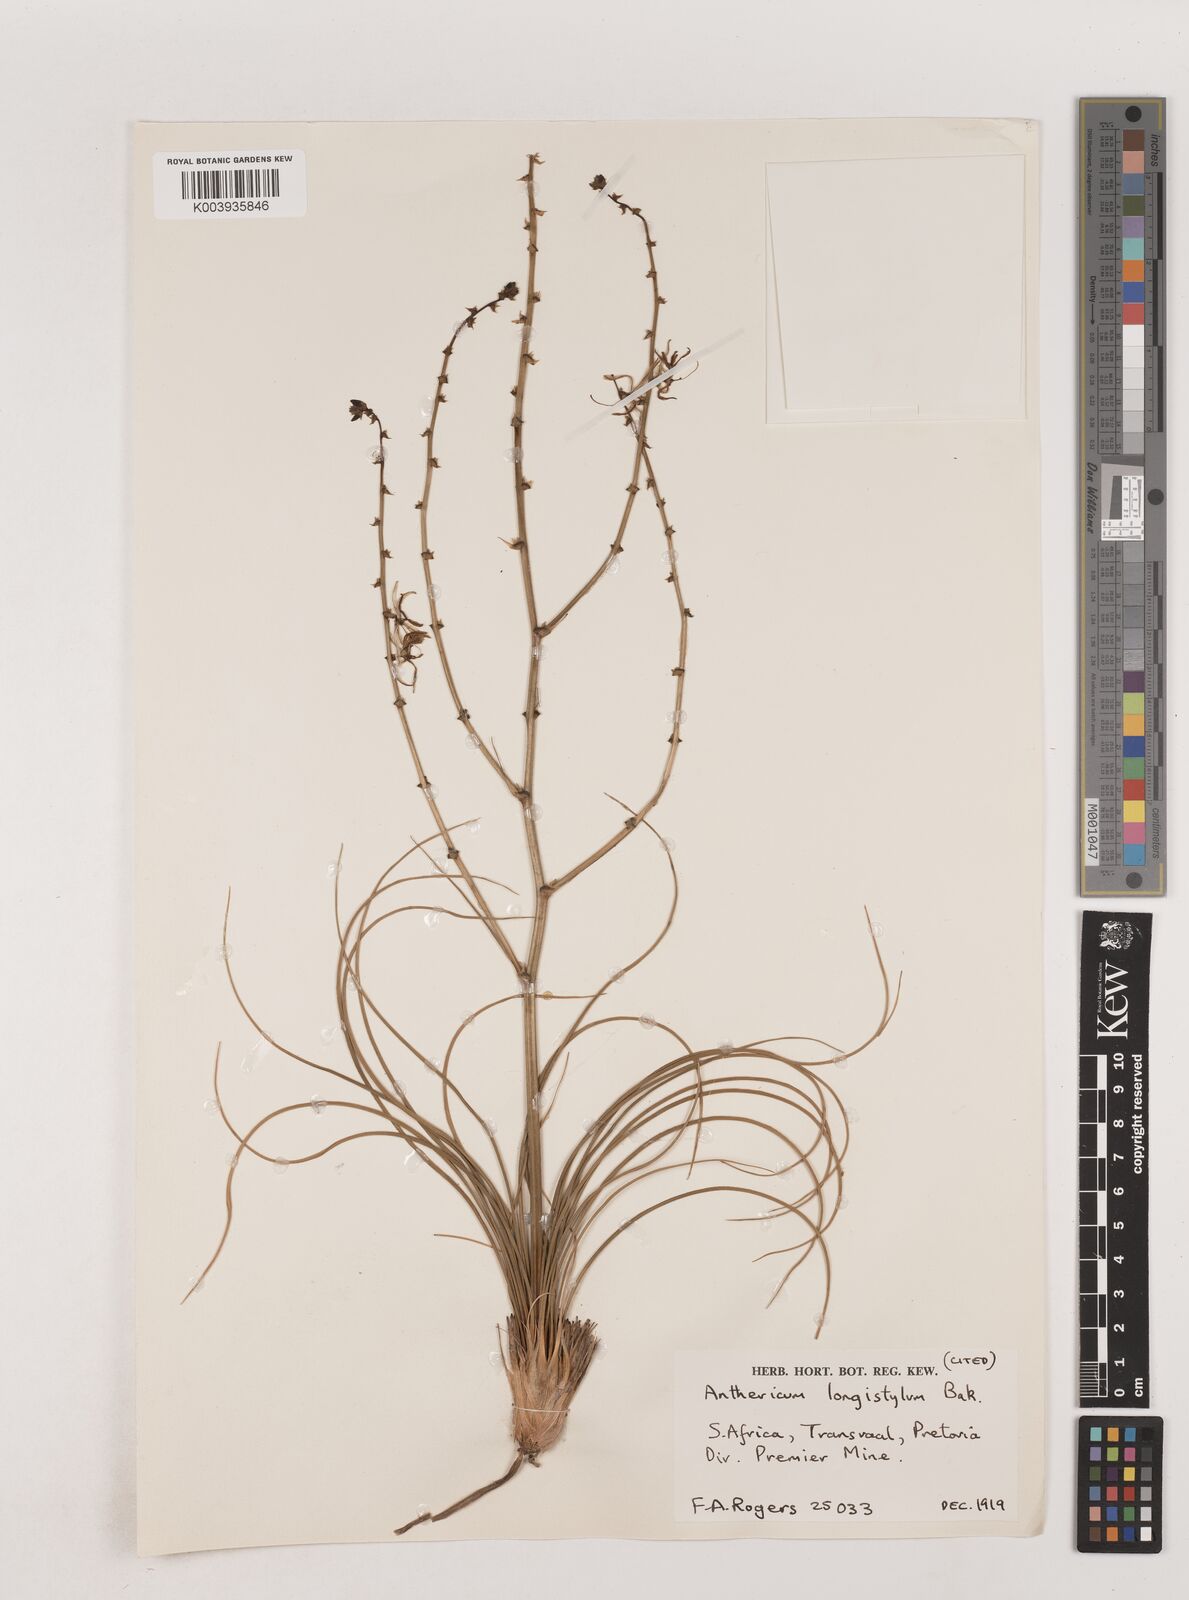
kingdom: Plantae
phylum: Tracheophyta
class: Liliopsida
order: Asparagales
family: Asparagaceae
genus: Chlorophytum
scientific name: Chlorophytum recurvifolium
